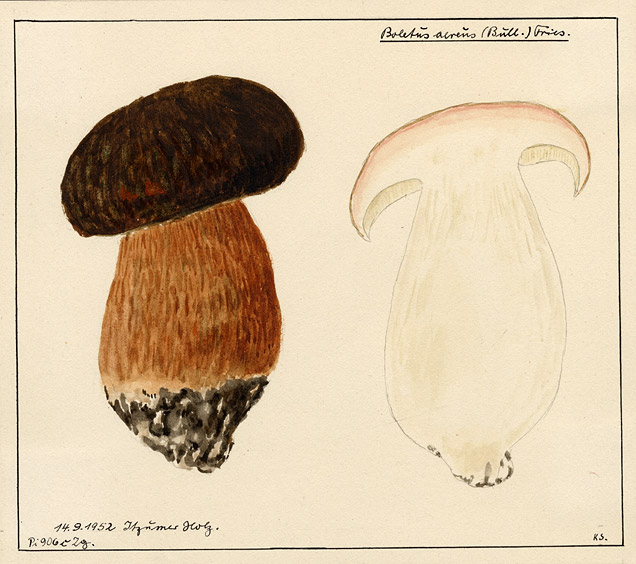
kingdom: Fungi
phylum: Basidiomycota
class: Agaricomycetes
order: Boletales
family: Boletaceae
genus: Boletus
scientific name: Boletus aereus
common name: Bronze bolete
